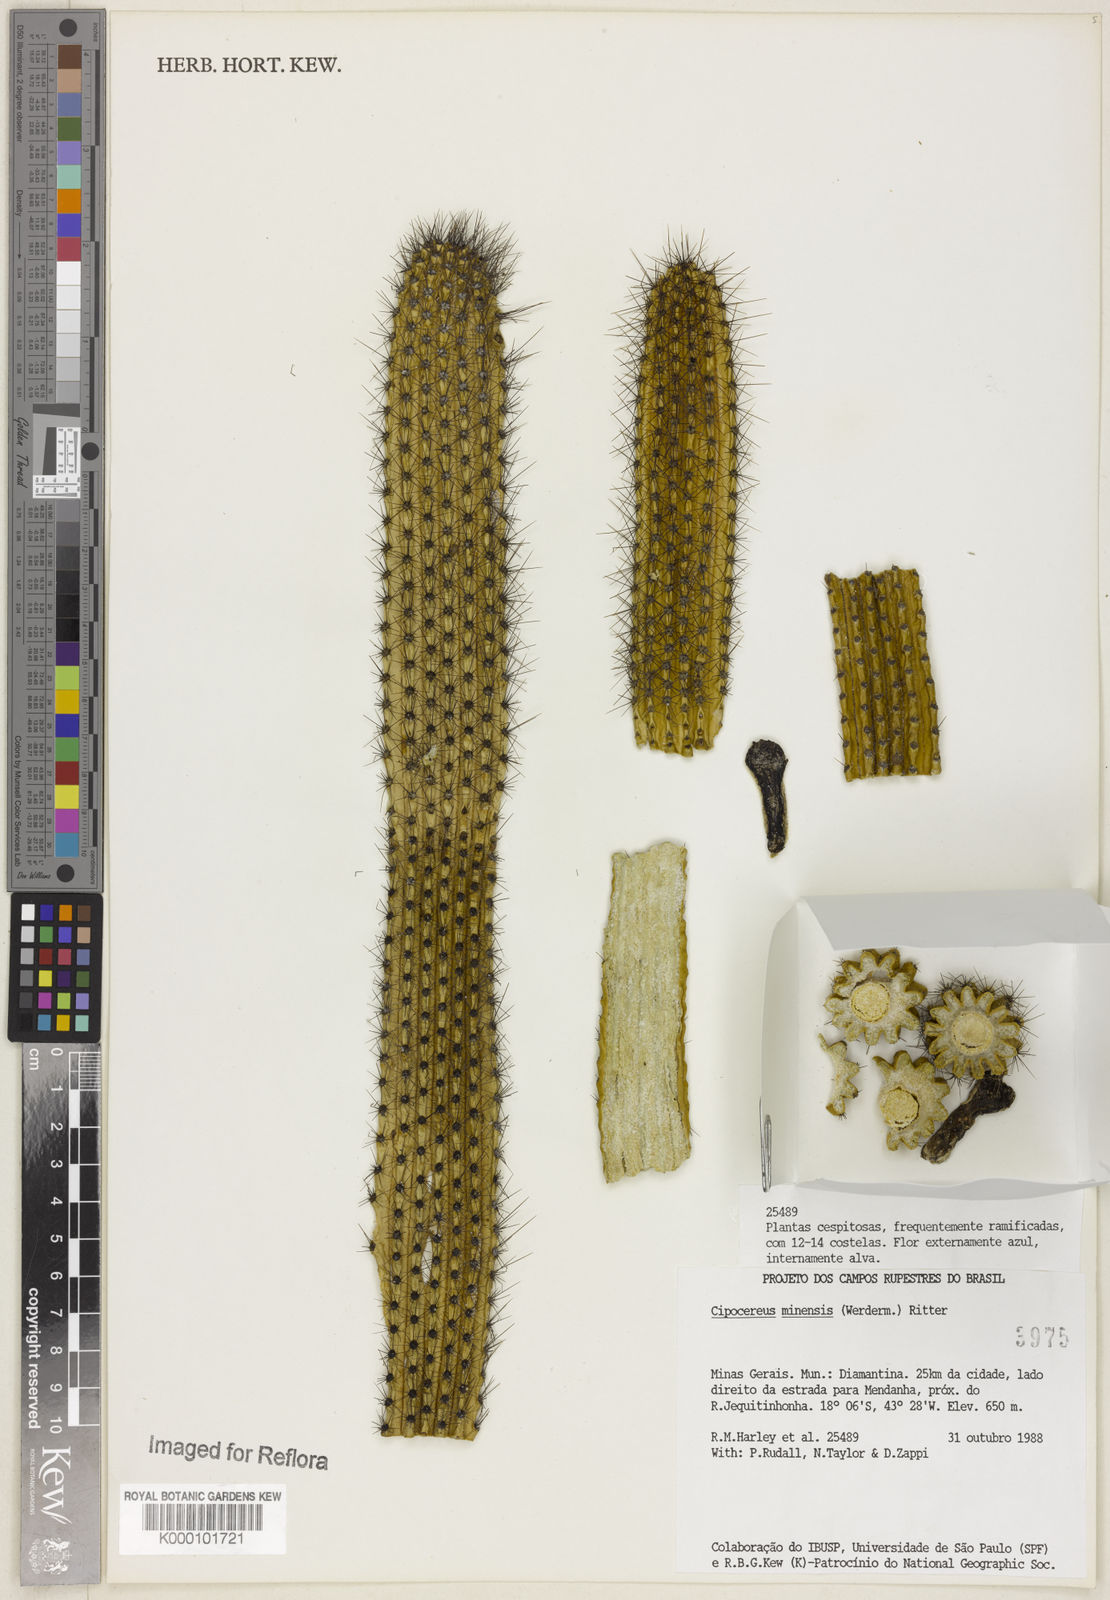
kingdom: Plantae
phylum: Tracheophyta
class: Magnoliopsida
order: Caryophyllales
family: Cactaceae
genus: Cipocereus
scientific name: Cipocereus minensis
